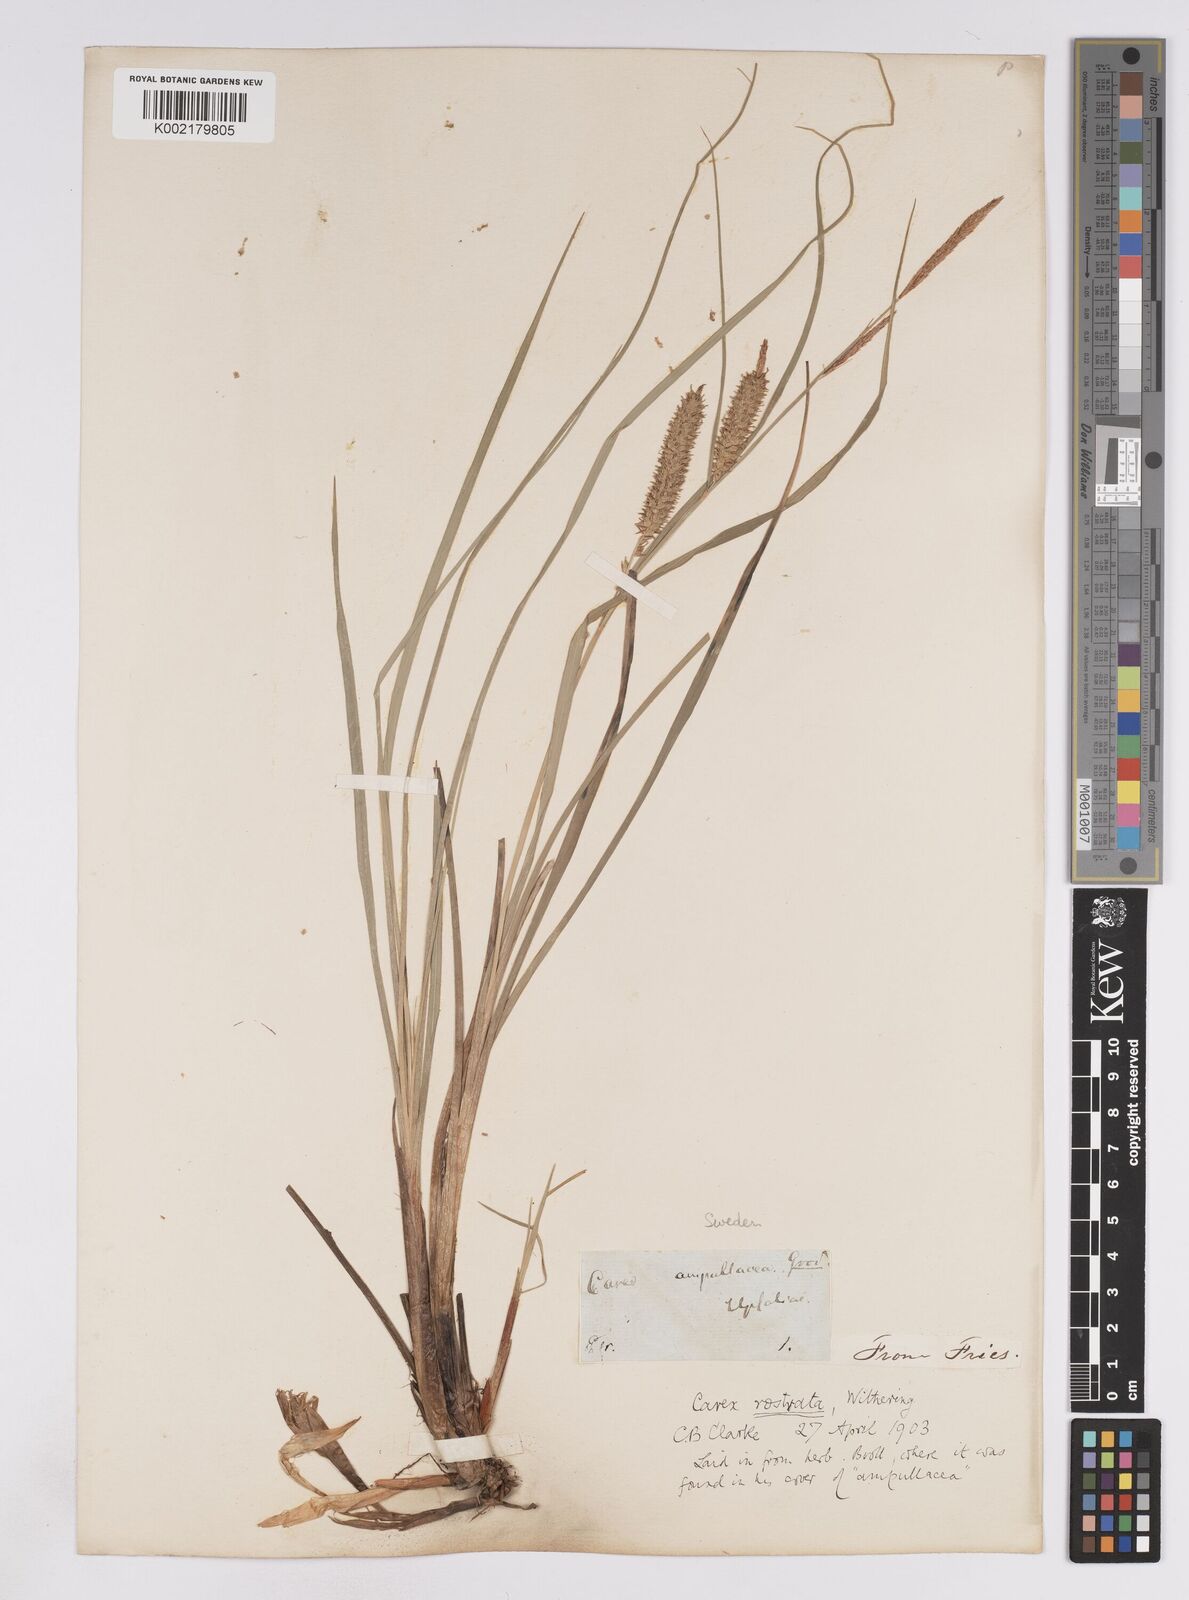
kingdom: Plantae
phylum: Tracheophyta
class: Liliopsida
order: Poales
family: Cyperaceae
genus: Carex
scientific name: Carex rostrata
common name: Bottle sedge
